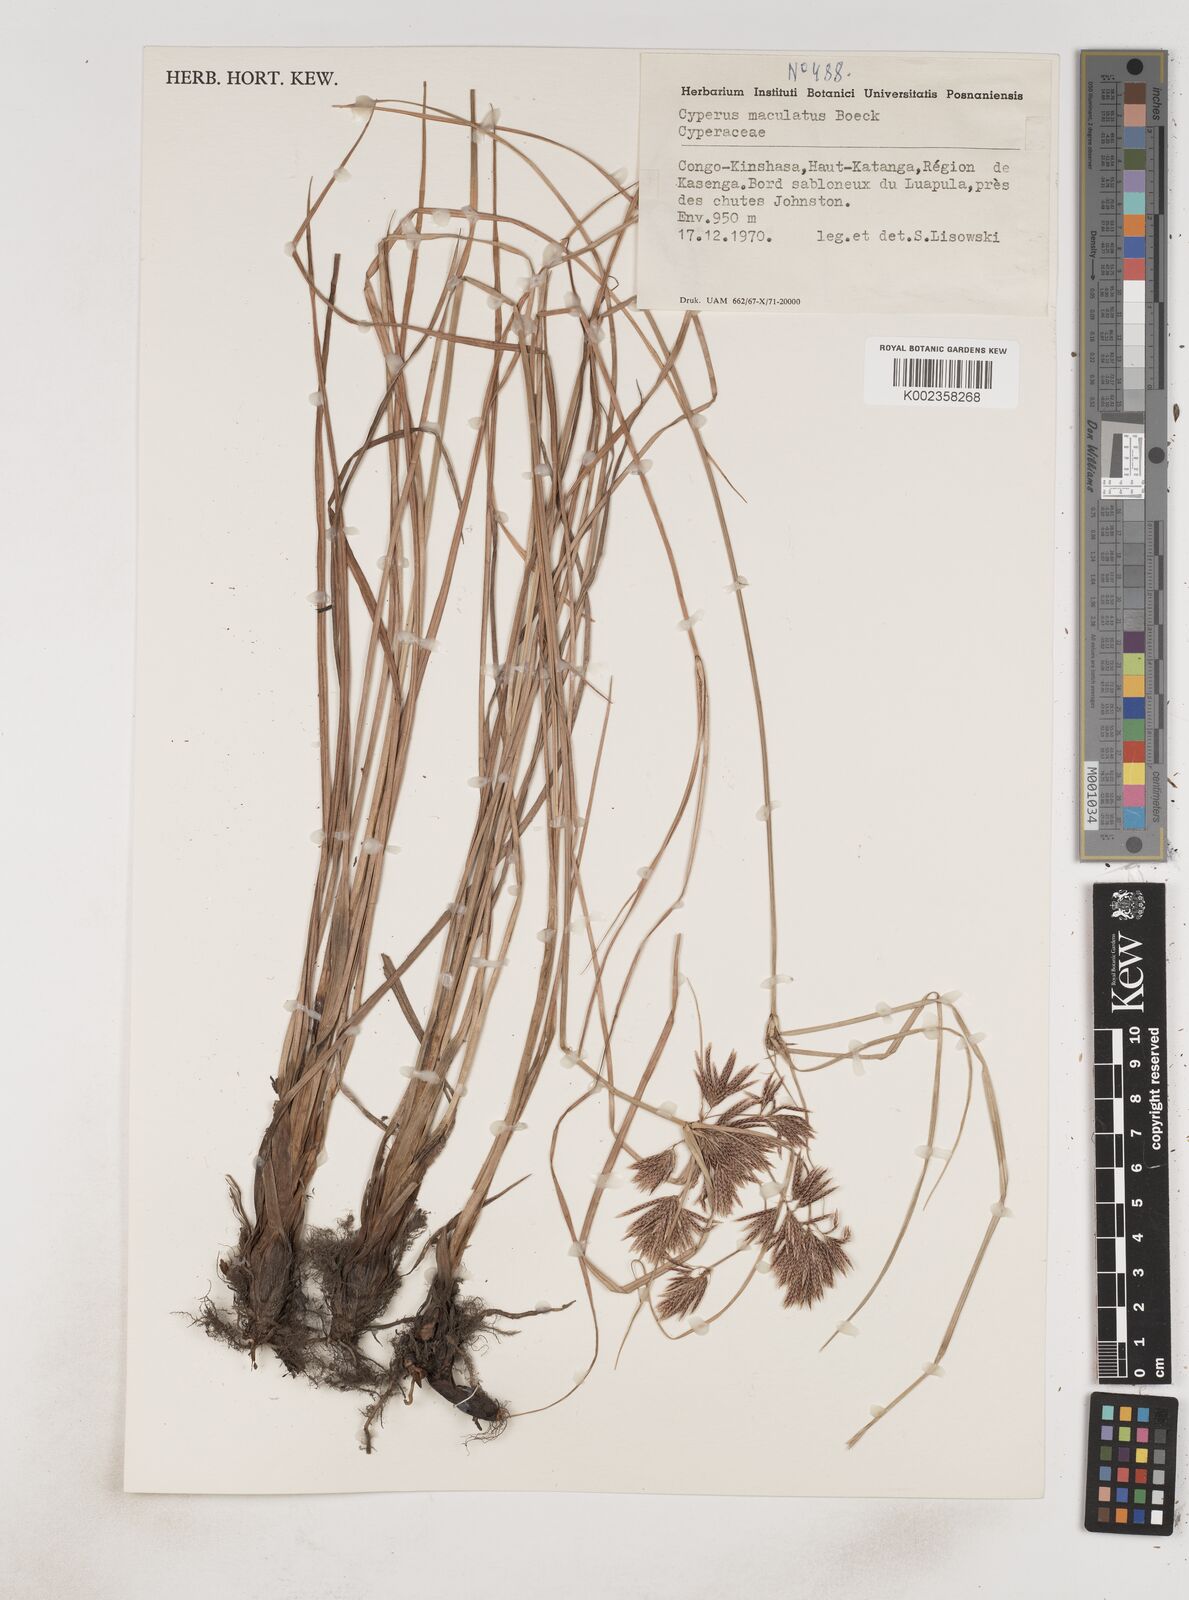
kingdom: Plantae
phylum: Tracheophyta
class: Liliopsida
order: Poales
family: Cyperaceae
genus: Cyperus
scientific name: Cyperus maculatus
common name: Maculated sedge
